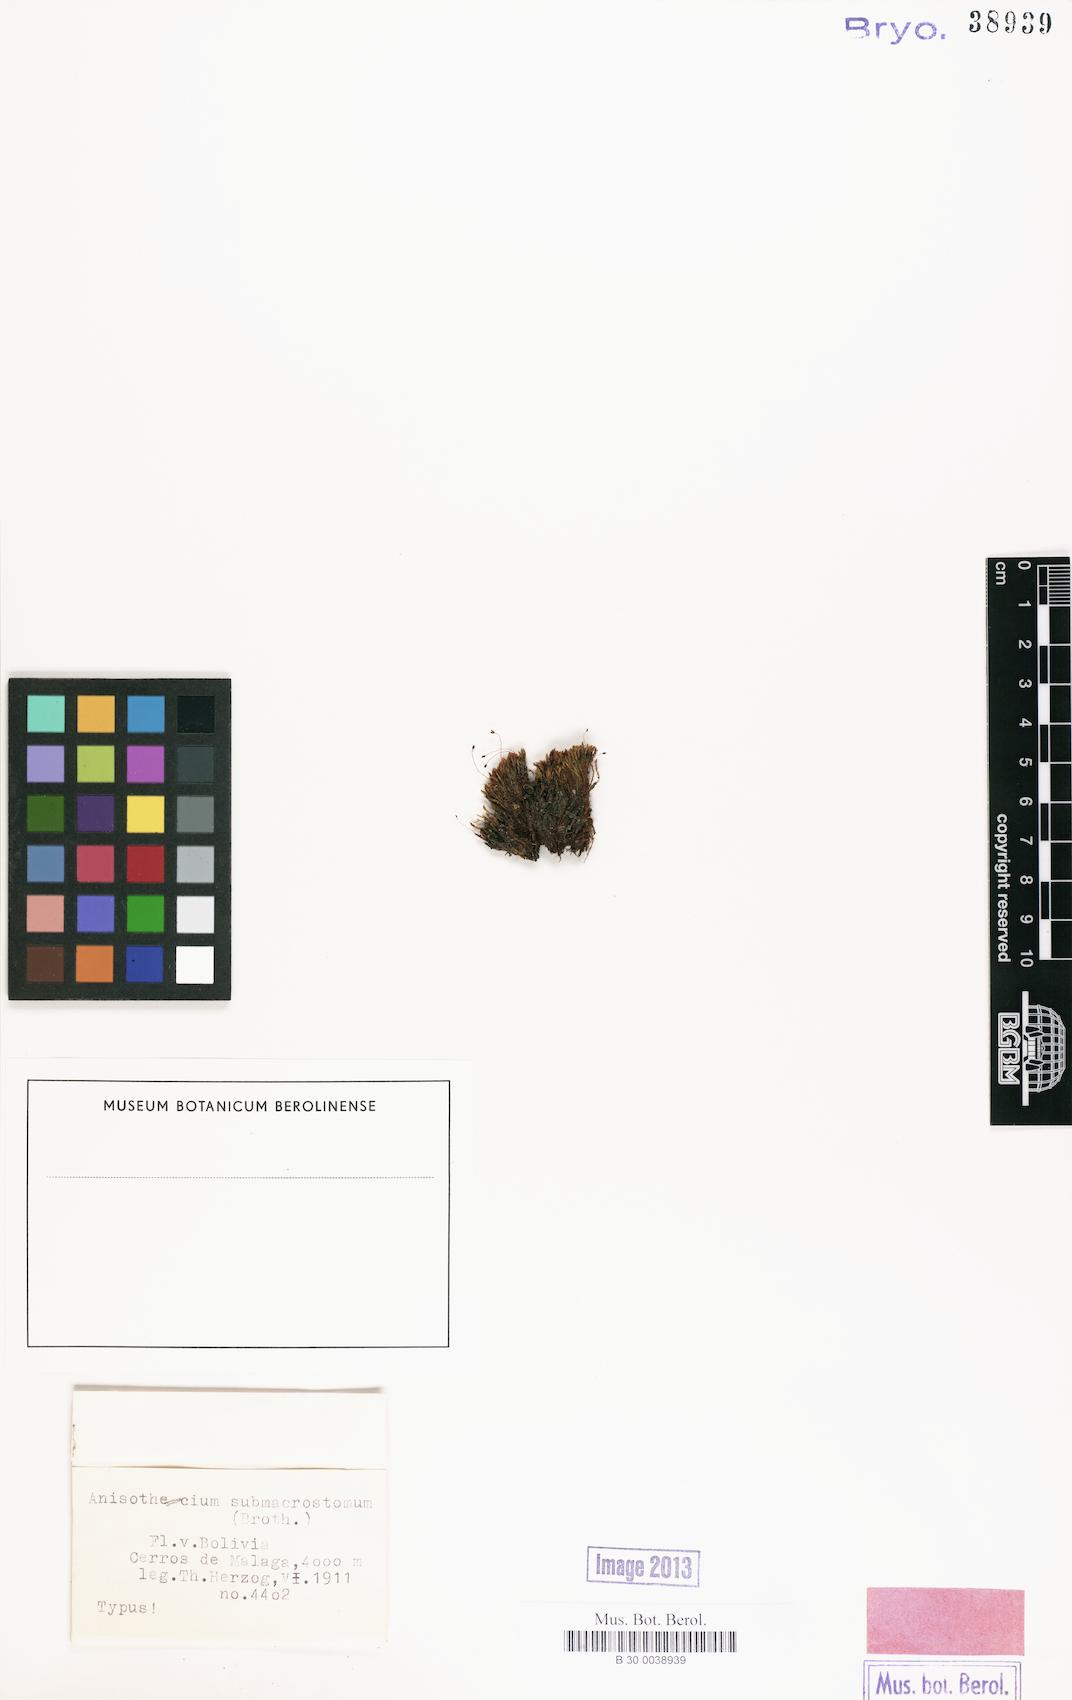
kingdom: Plantae
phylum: Bryophyta
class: Bryopsida
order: Dicranales
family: Dicranellaceae
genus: Dicranella
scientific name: Dicranella submacrostoma
